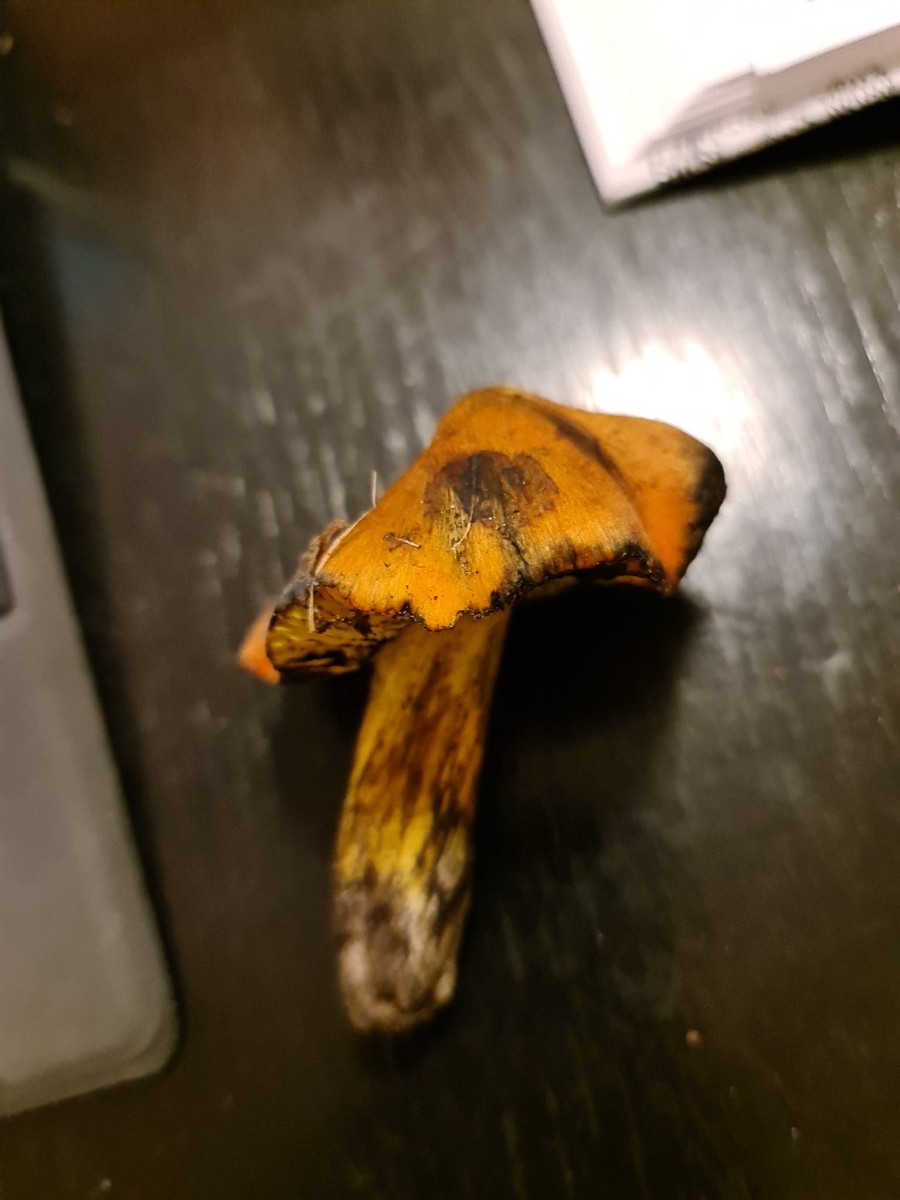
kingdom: Fungi
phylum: Basidiomycota
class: Agaricomycetes
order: Agaricales
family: Hygrophoraceae
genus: Hygrocybe
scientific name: Hygrocybe conica
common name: kegle-vokshat
